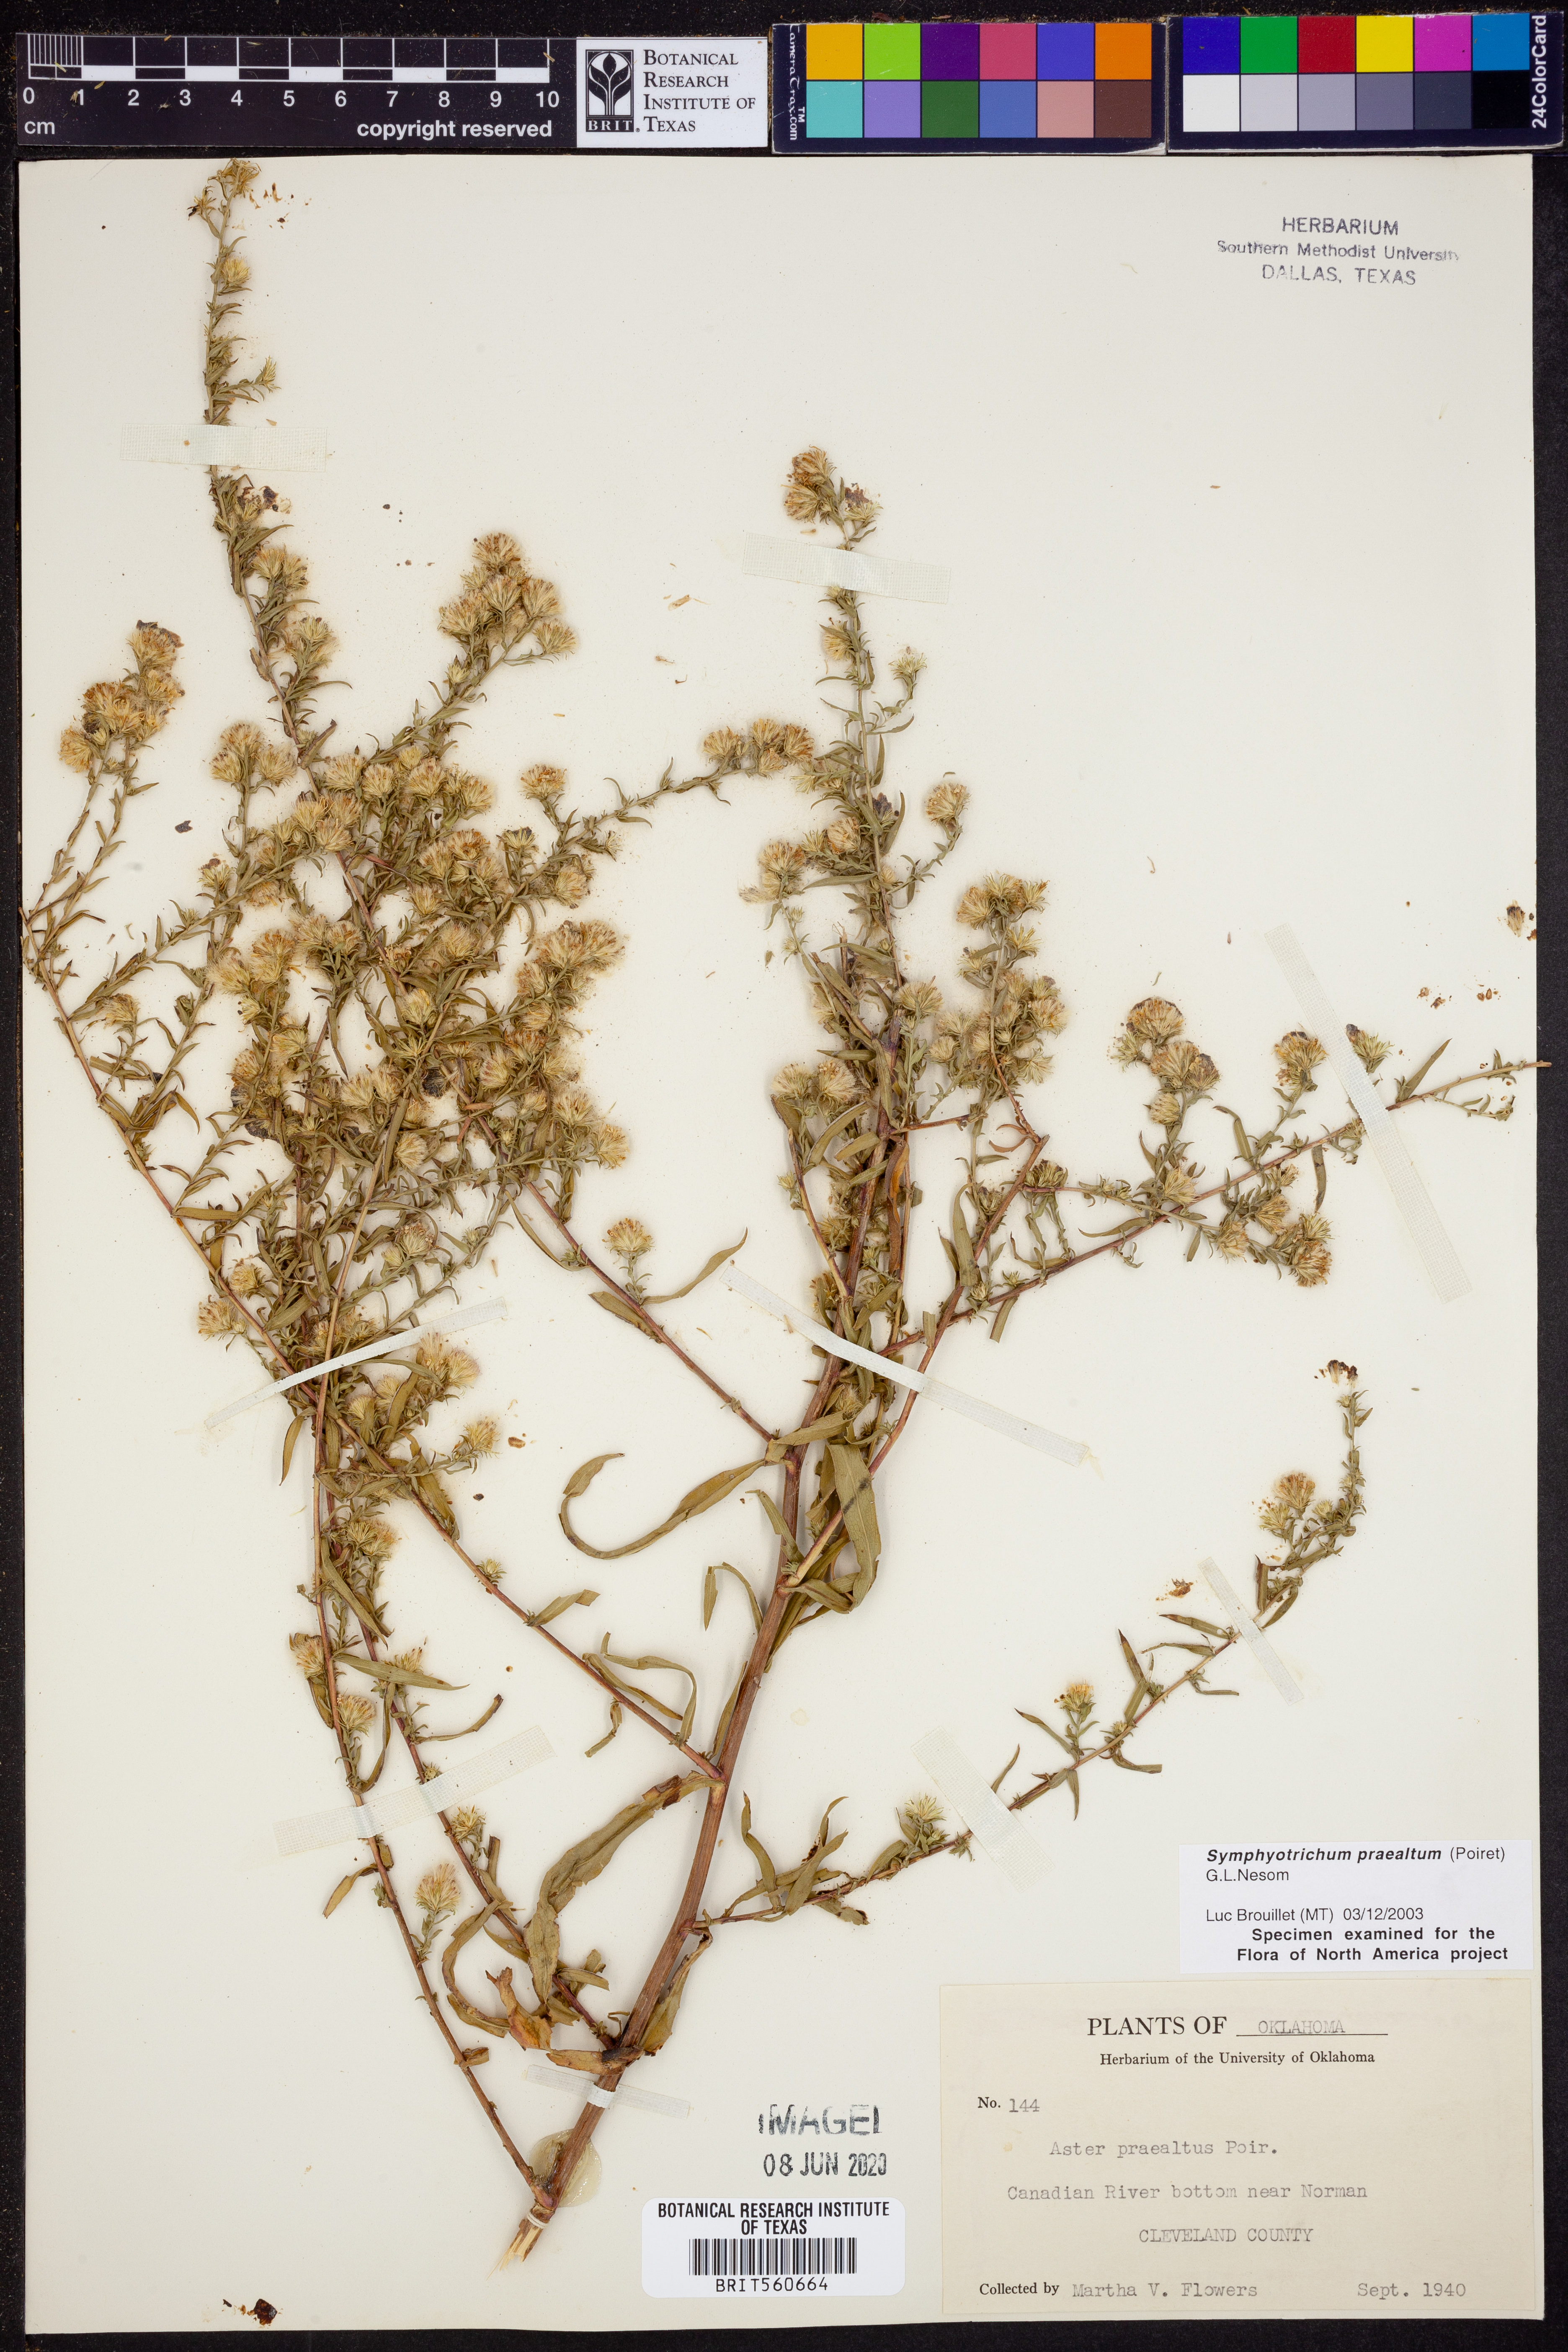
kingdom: Plantae
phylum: Tracheophyta
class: Magnoliopsida
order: Asterales
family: Asteraceae
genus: Symphyotrichum
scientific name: Symphyotrichum praealtum
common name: Willow aster
